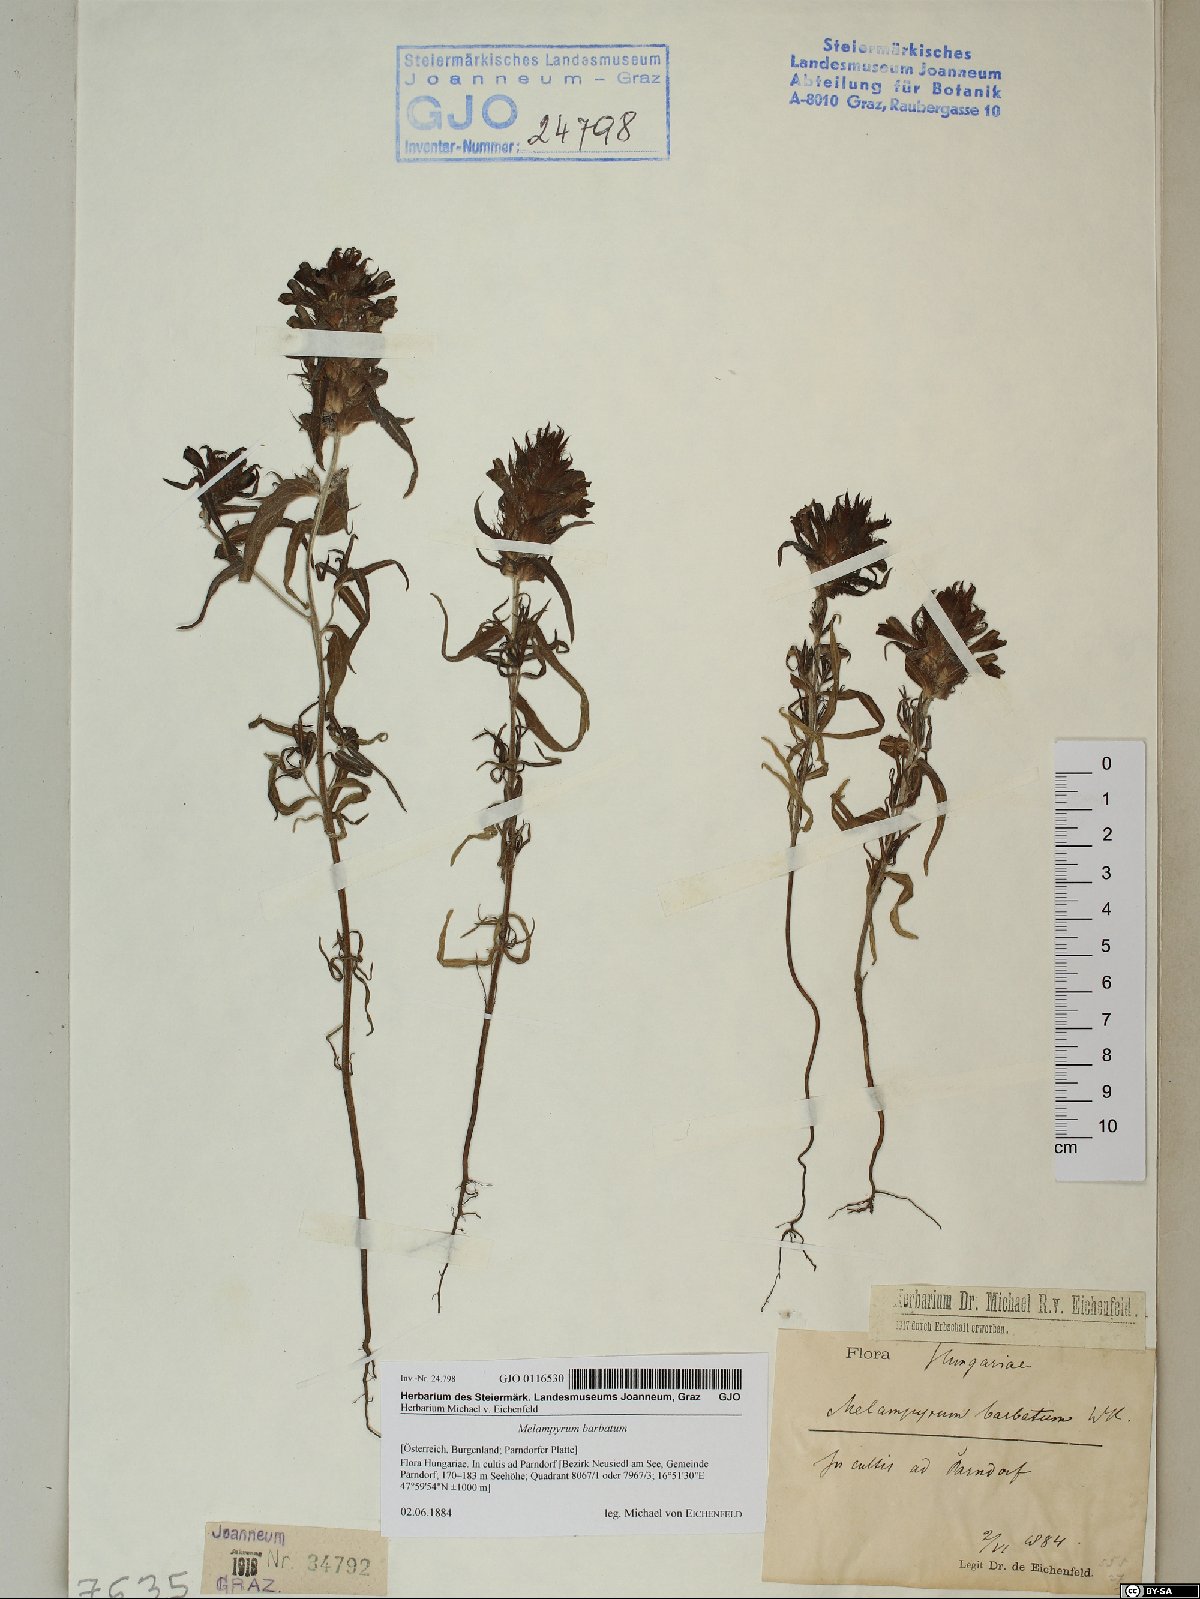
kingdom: Plantae
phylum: Tracheophyta
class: Magnoliopsida
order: Lamiales
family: Orobanchaceae
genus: Melampyrum
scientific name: Melampyrum barbatum
